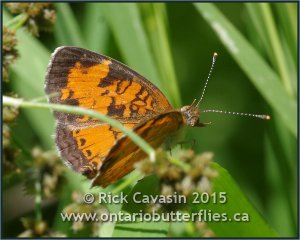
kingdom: Animalia
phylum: Arthropoda
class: Insecta
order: Lepidoptera
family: Nymphalidae
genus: Phyciodes
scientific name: Phyciodes tharos
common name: Northern Crescent
